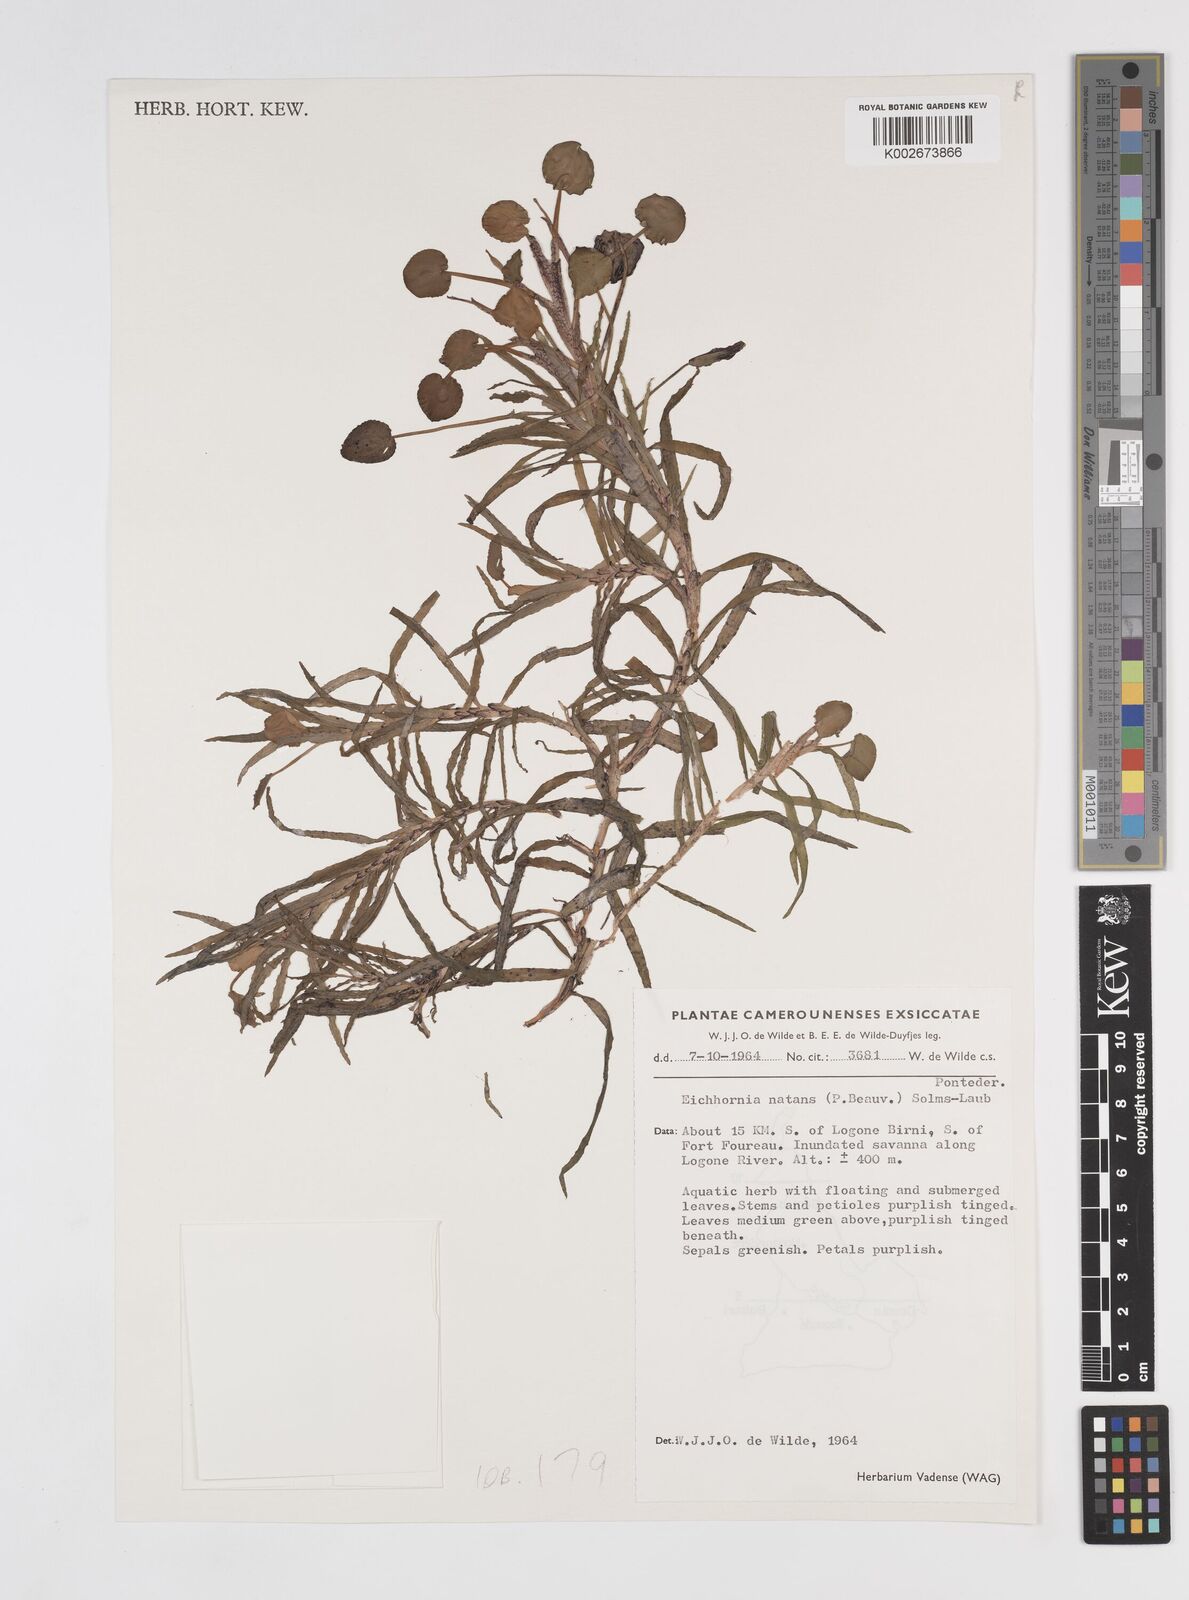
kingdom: Plantae
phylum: Tracheophyta
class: Liliopsida
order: Commelinales
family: Pontederiaceae
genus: Pontederia
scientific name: Pontederia natans
